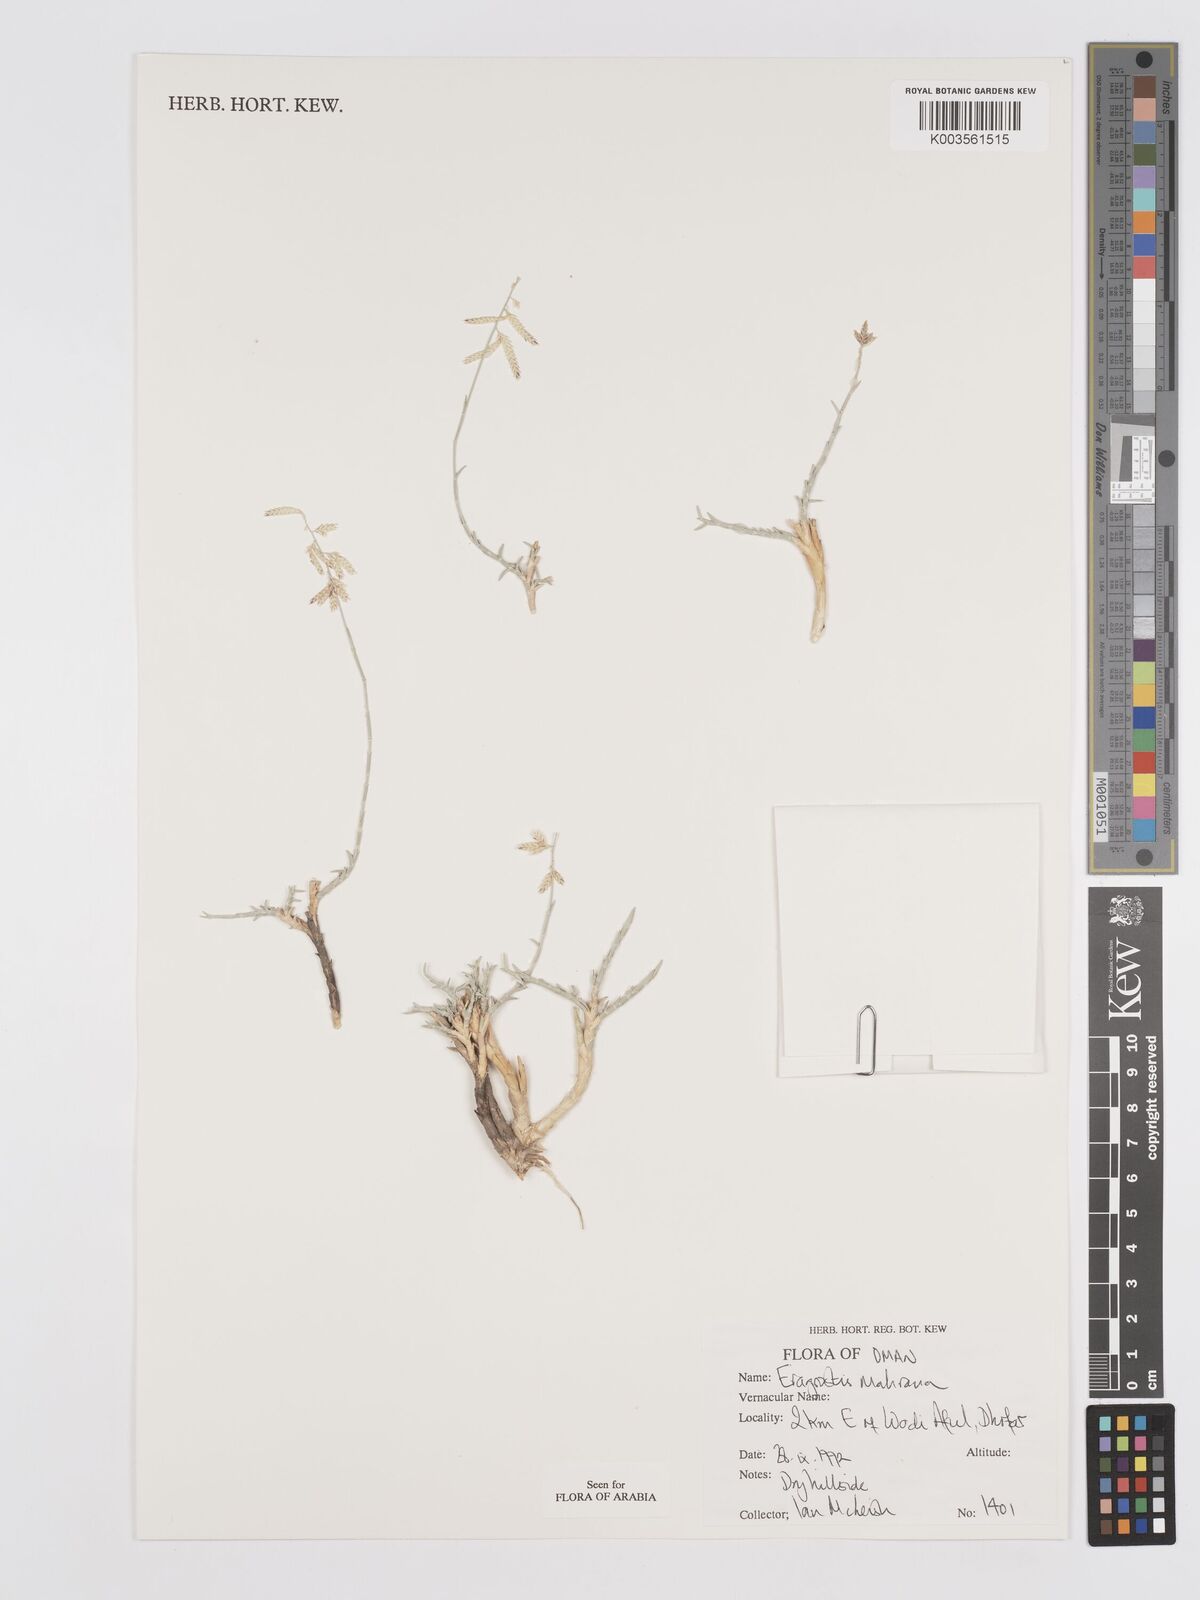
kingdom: Plantae
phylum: Tracheophyta
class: Liliopsida
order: Poales
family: Poaceae
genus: Eragrostis
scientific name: Eragrostis mahrana
